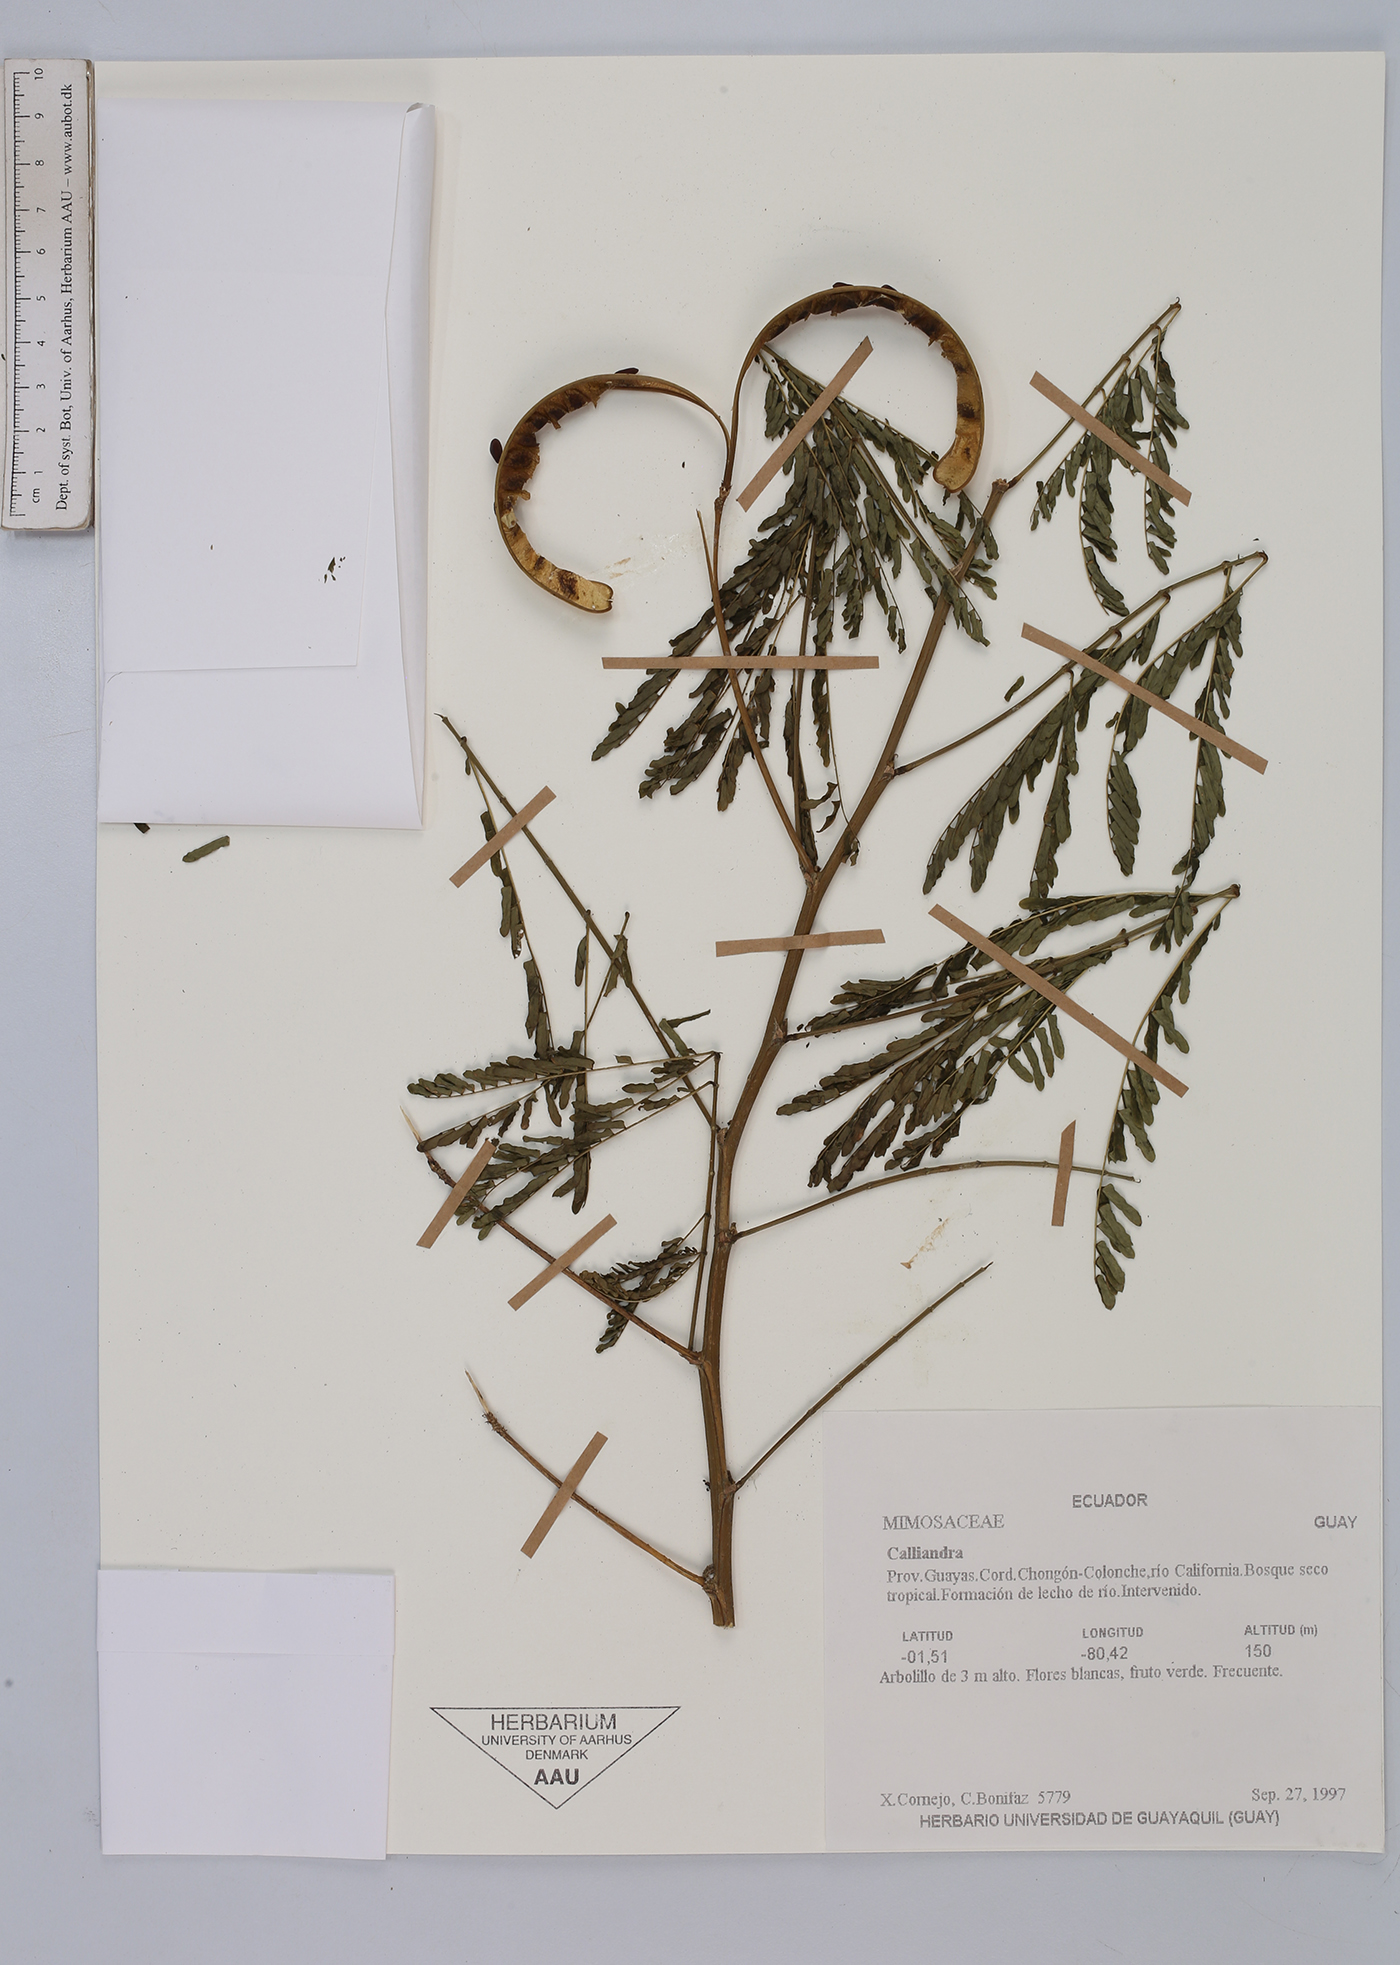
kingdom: Plantae
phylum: Tracheophyta
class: Magnoliopsida
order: Fabales
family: Fabaceae
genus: Calliandra
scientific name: Calliandra
